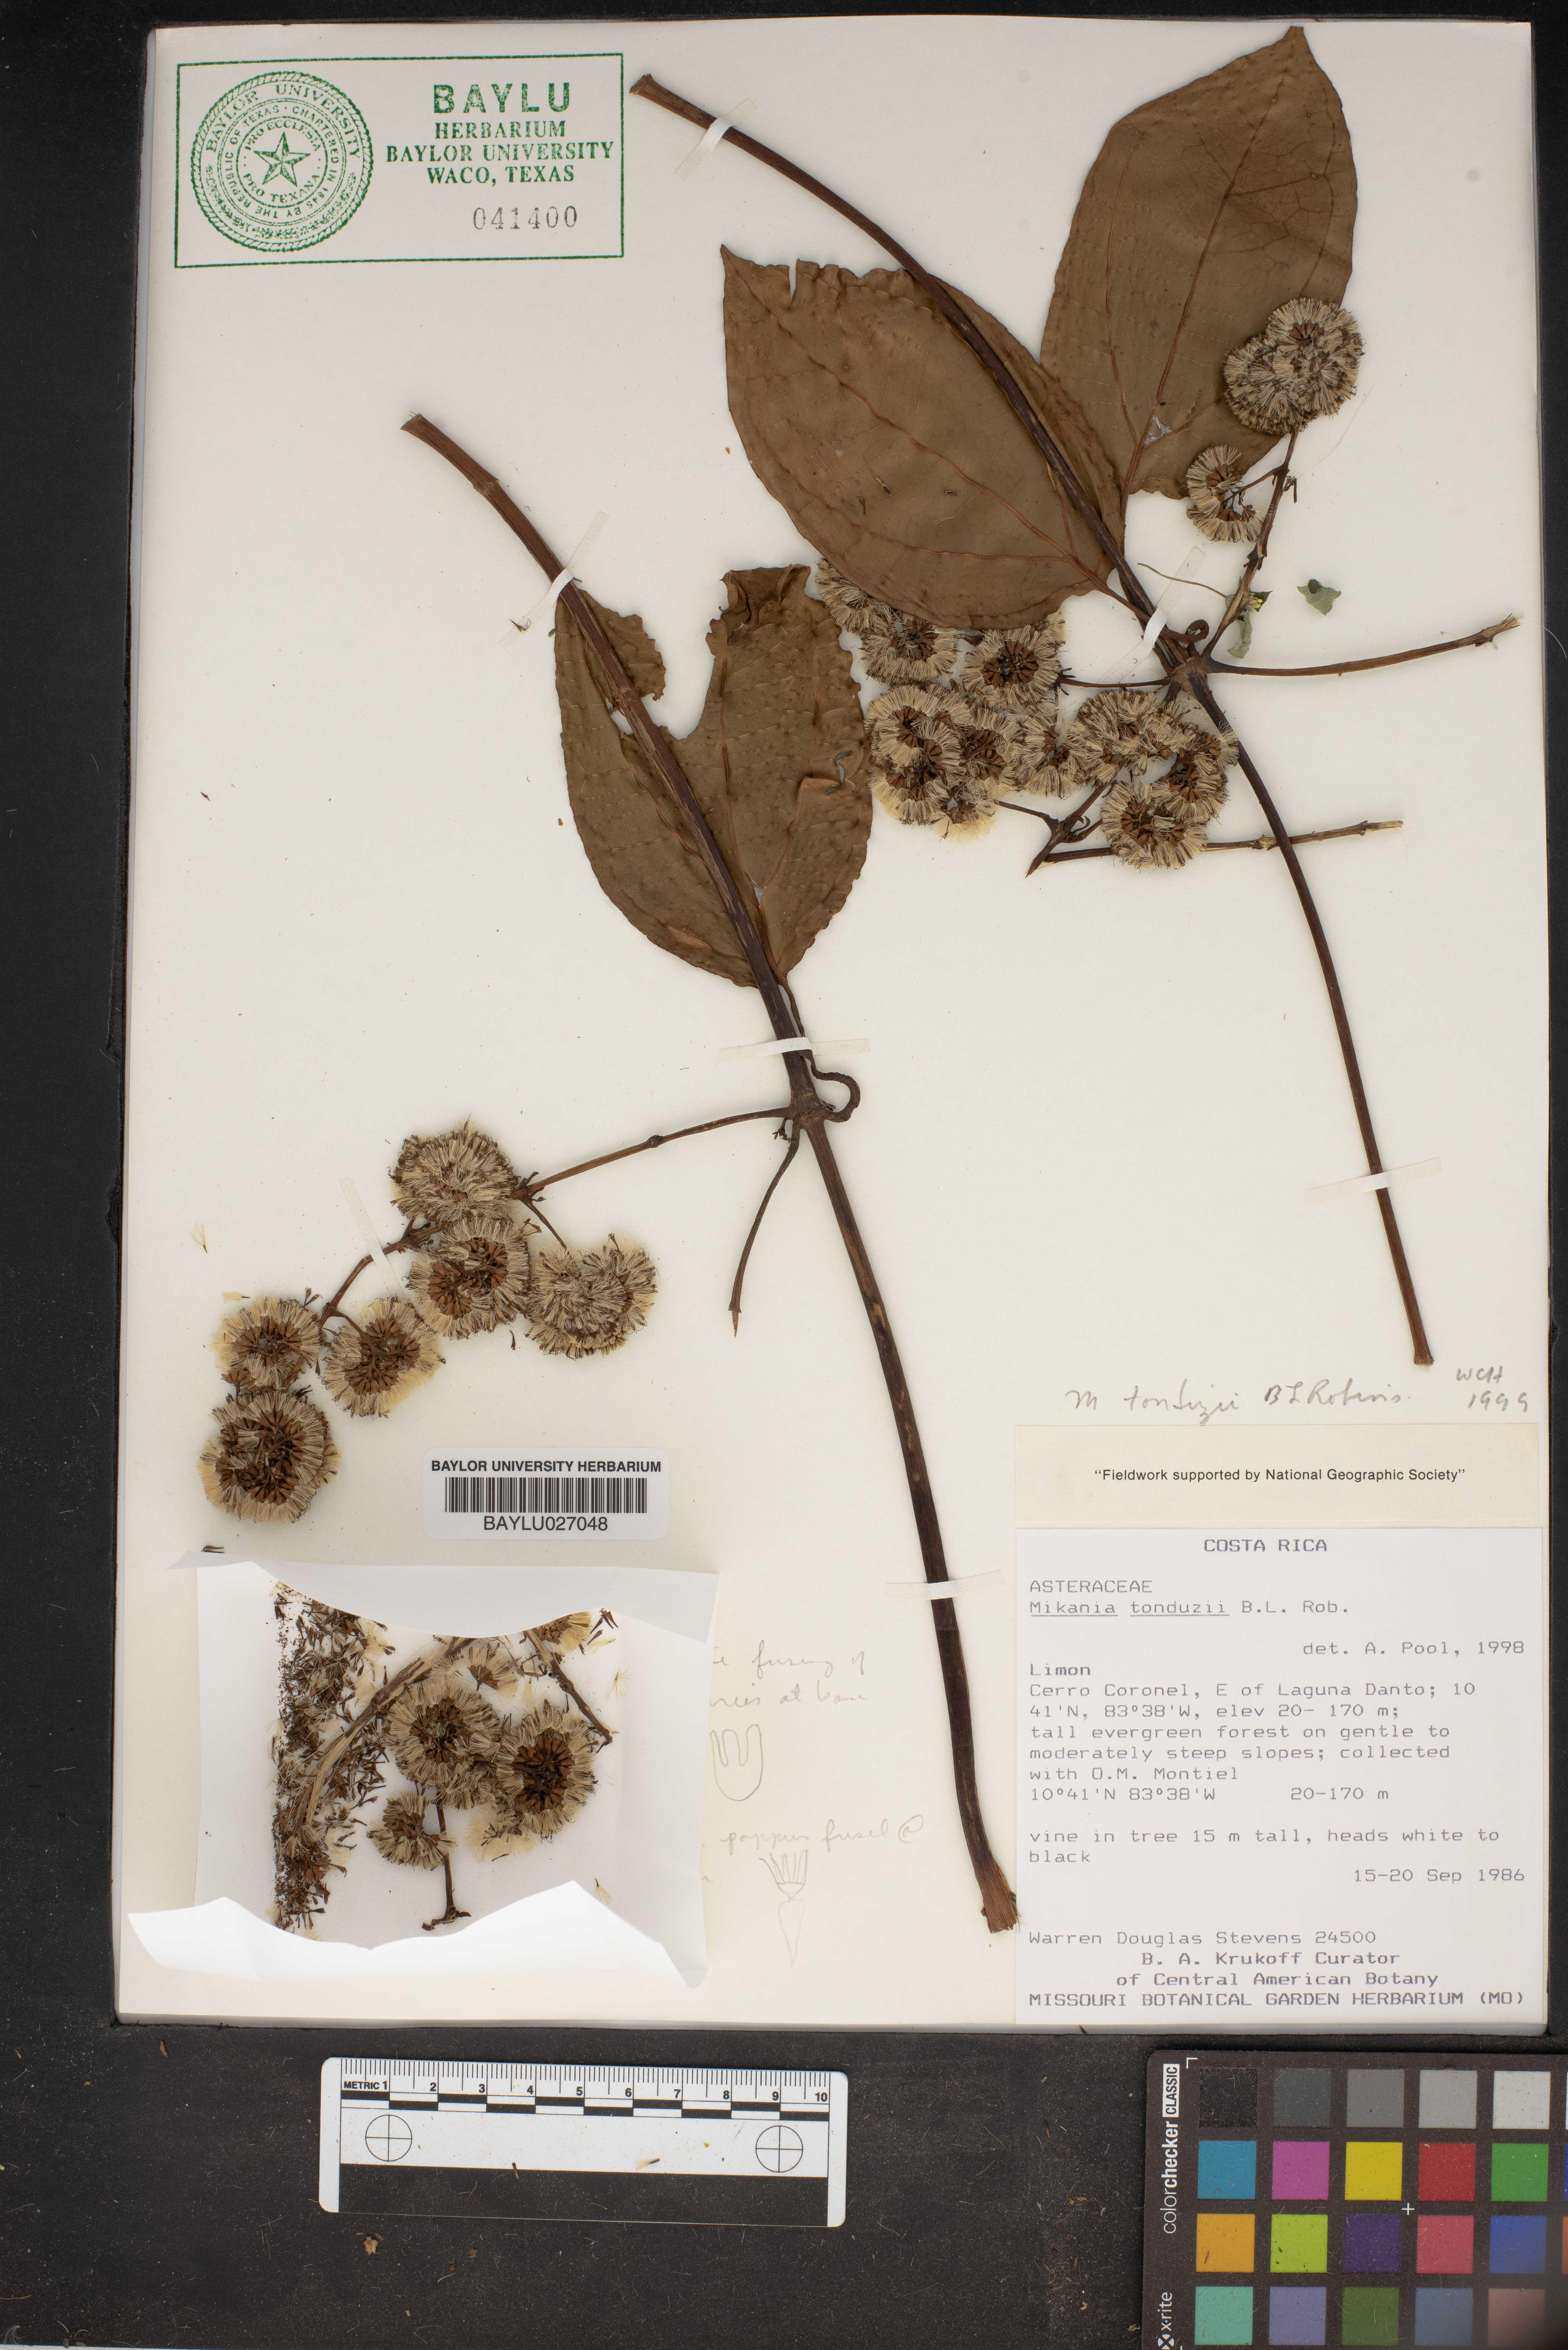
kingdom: Plantae
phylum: Tracheophyta
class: Magnoliopsida
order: Asterales
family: Asteraceae
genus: Mikania
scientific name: Mikania tonduzii
